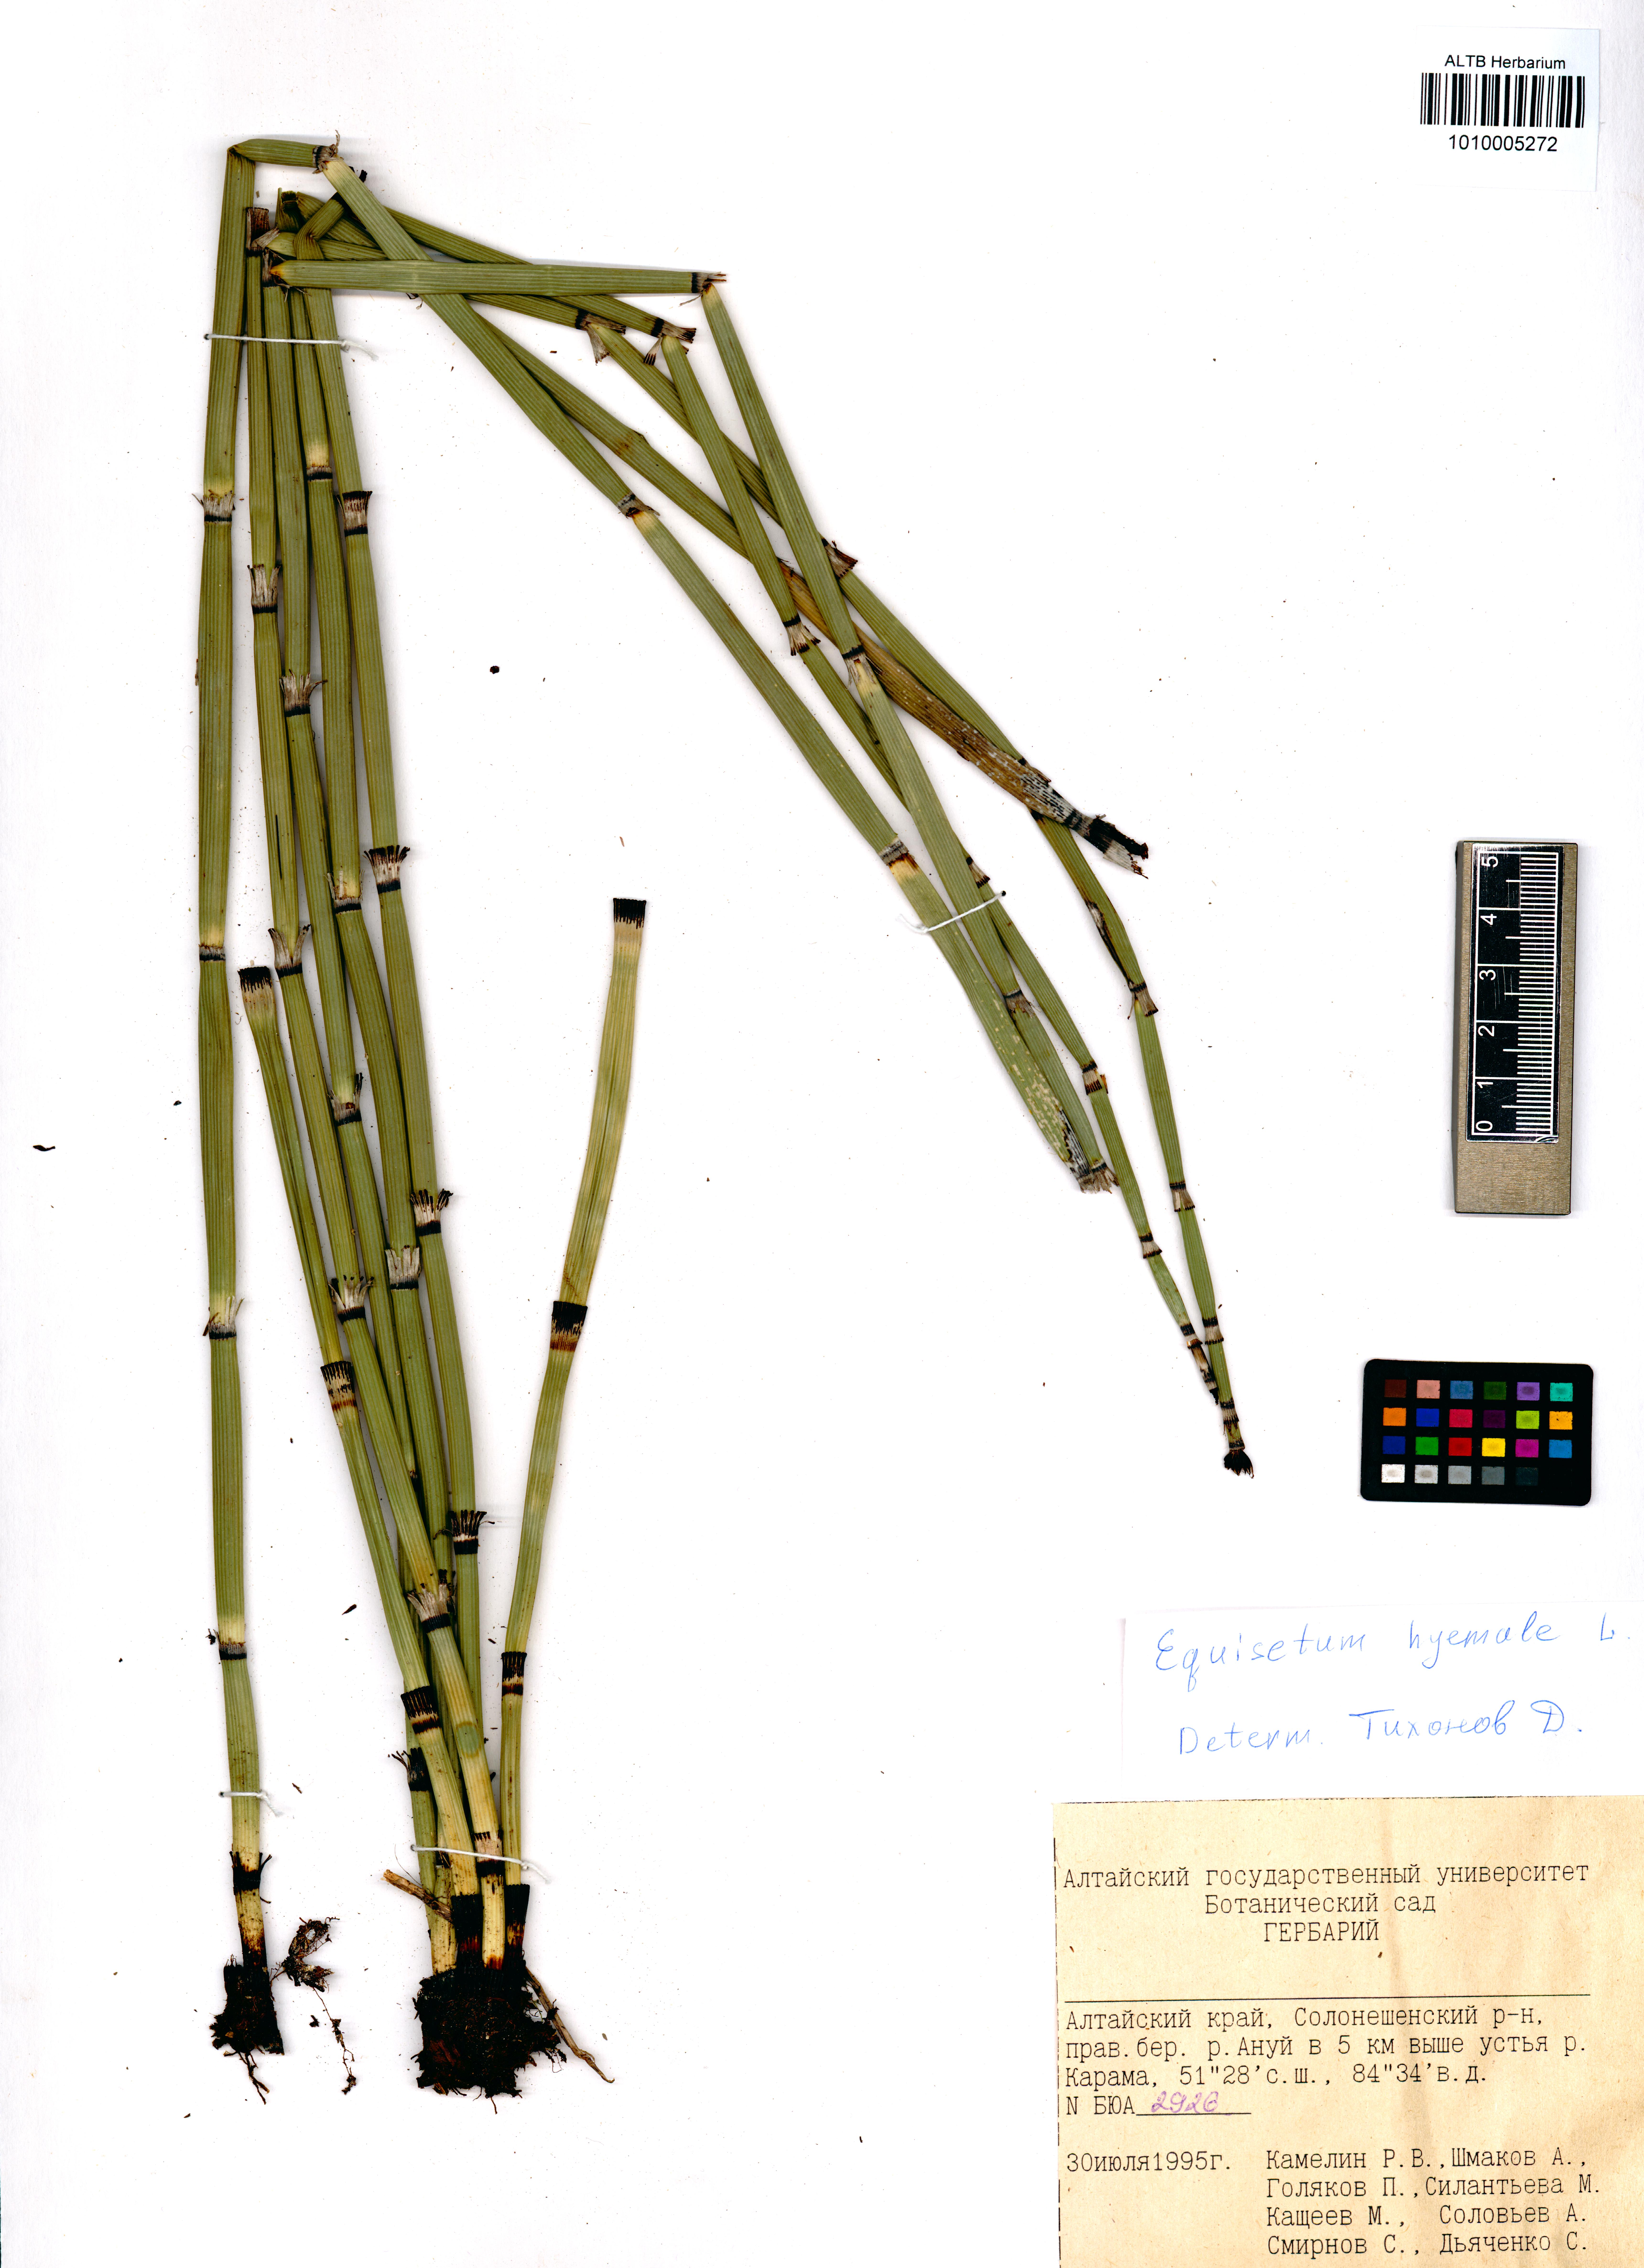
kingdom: Plantae
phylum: Tracheophyta
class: Polypodiopsida
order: Equisetales
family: Equisetaceae
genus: Equisetum
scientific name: Equisetum hyemale
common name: Rough horsetail
